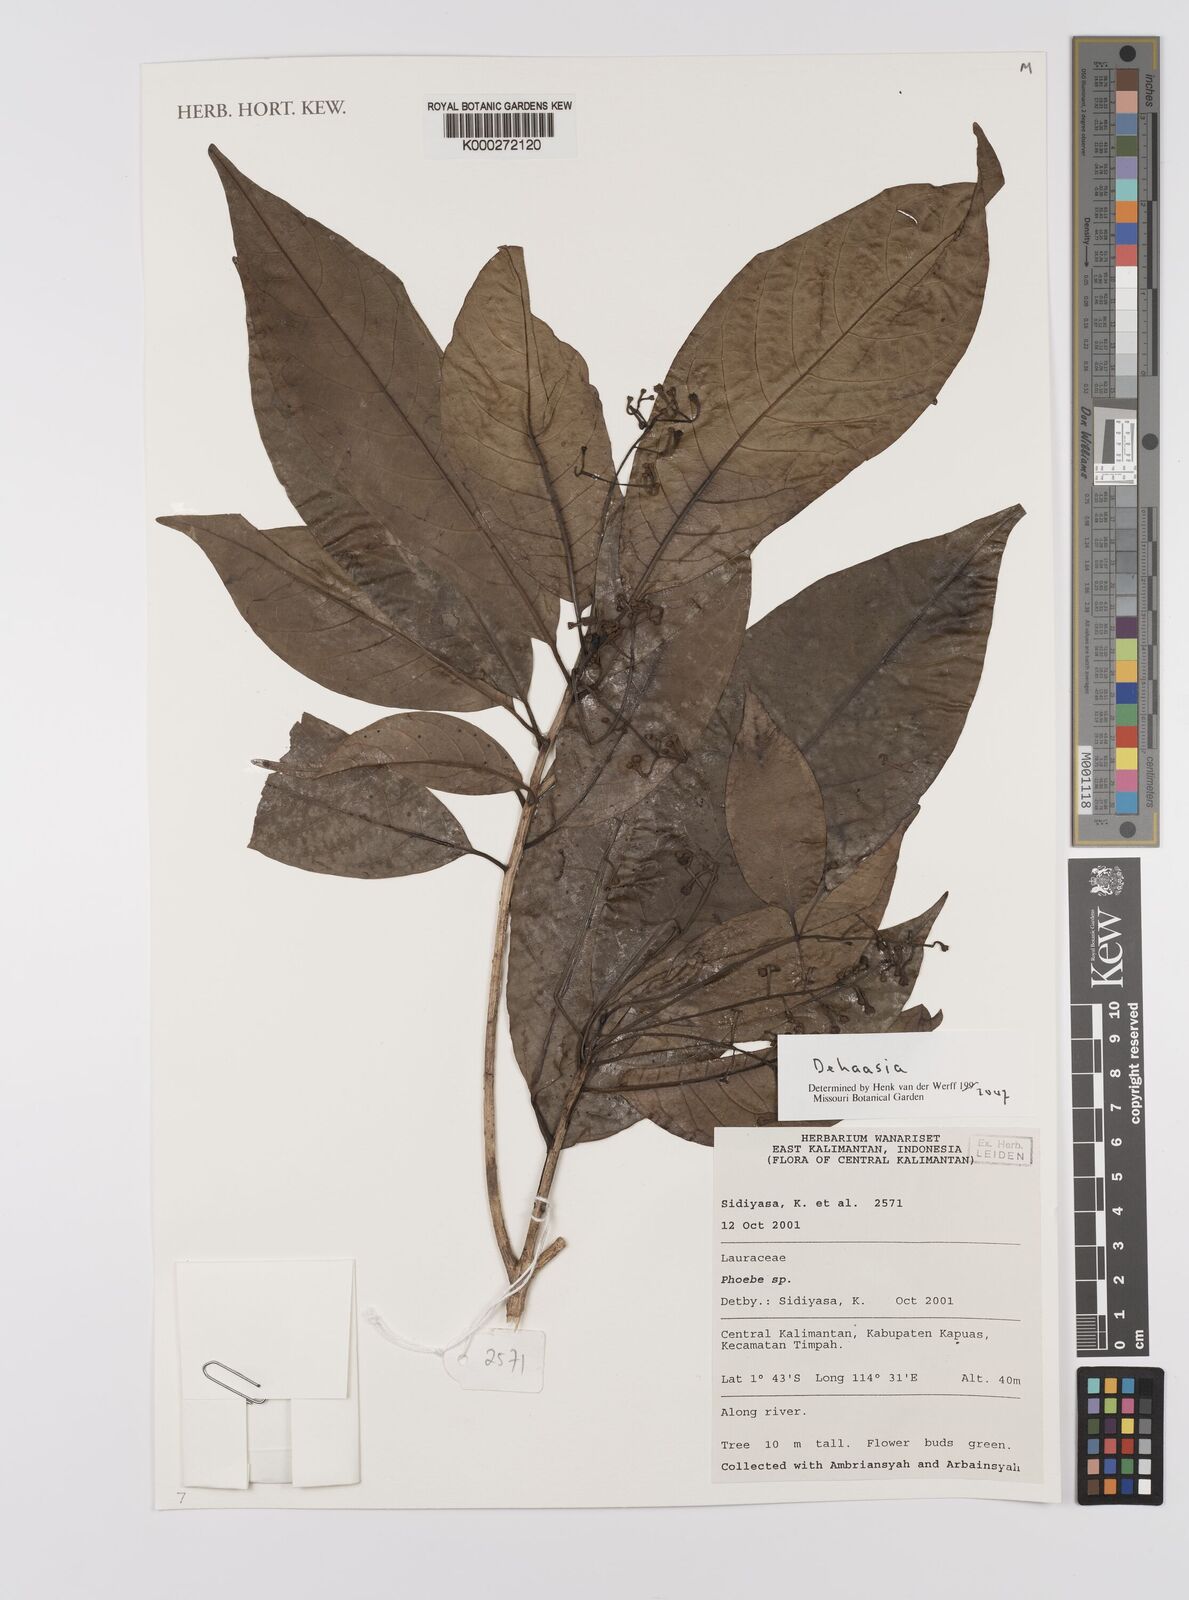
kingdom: Plantae
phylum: Tracheophyta
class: Magnoliopsida
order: Laurales
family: Lauraceae
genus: Dehaasia
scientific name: Dehaasia
